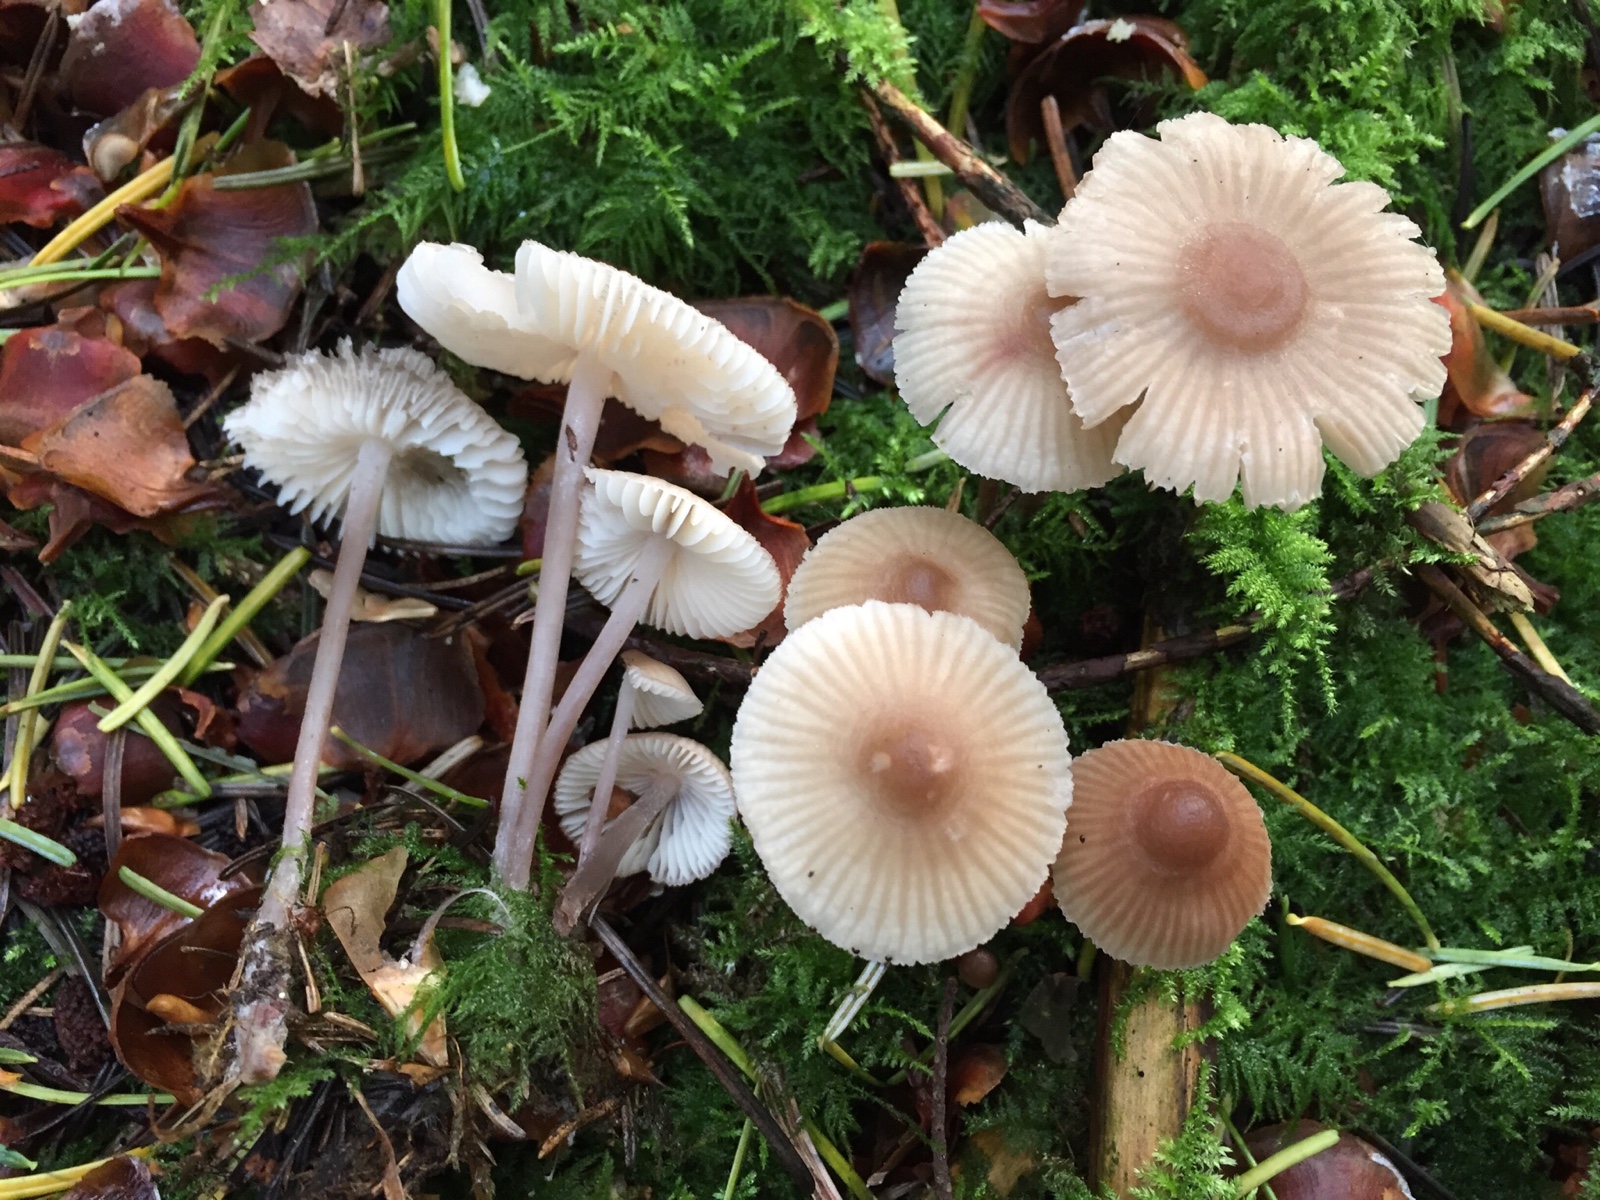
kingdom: Fungi
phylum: Basidiomycota
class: Agaricomycetes
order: Agaricales
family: Mycenaceae
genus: Mycena
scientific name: Mycena zephirus
